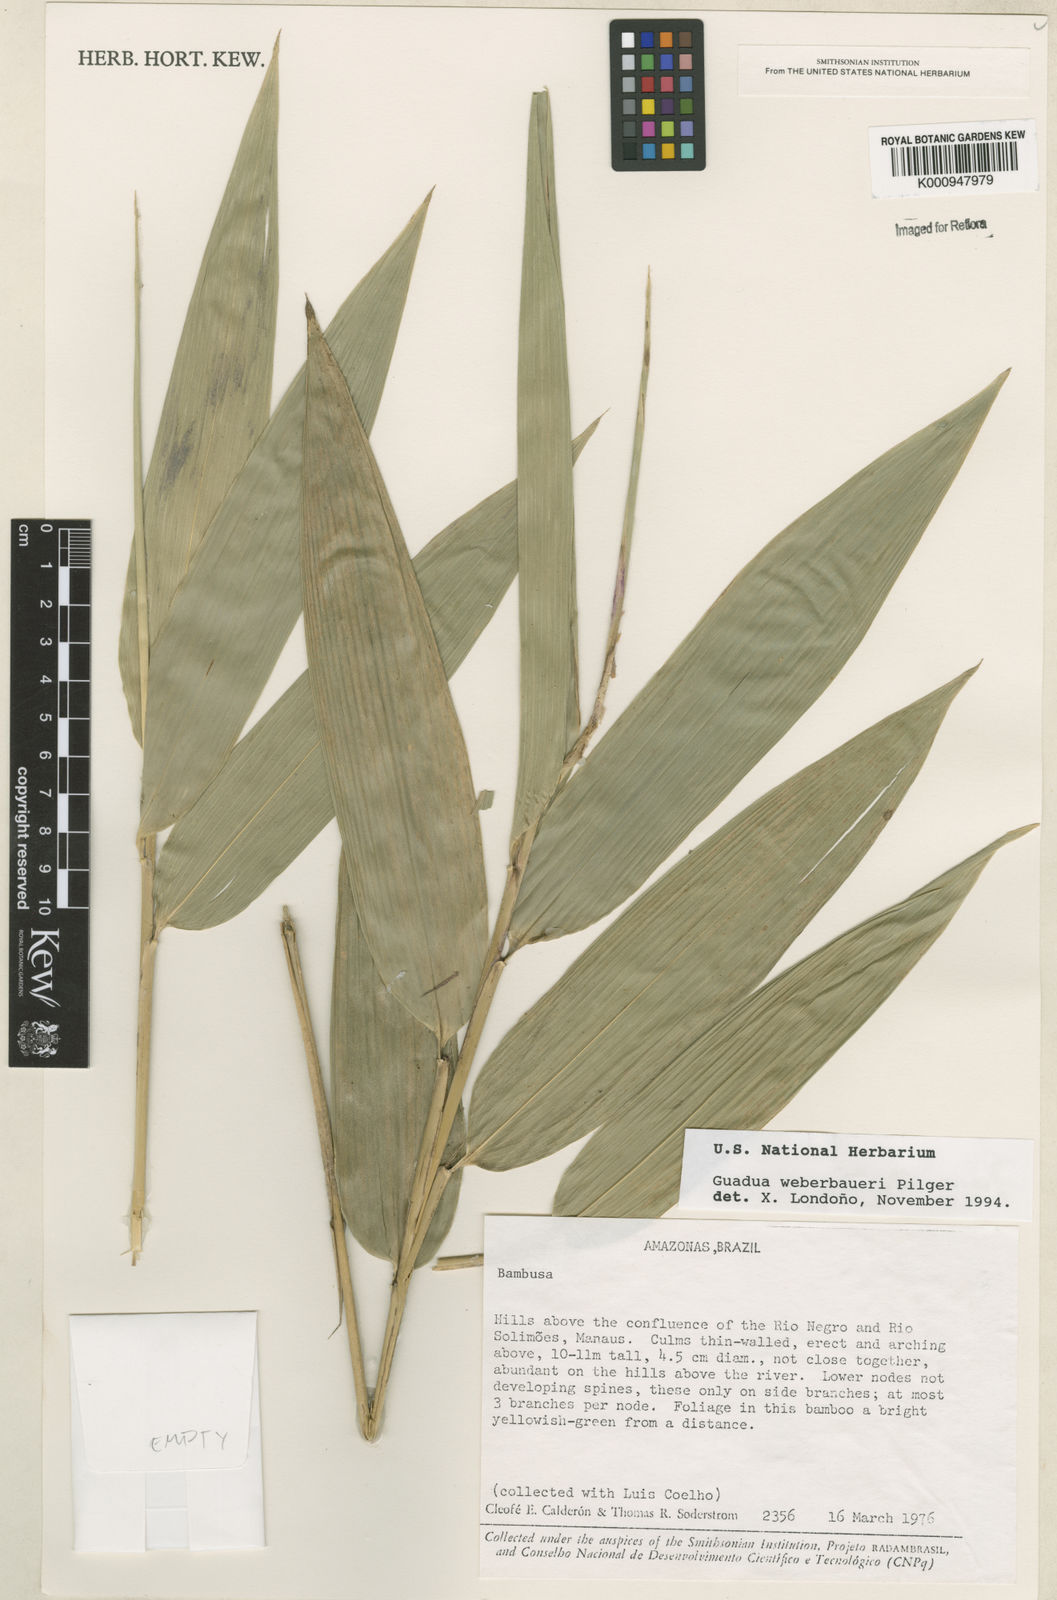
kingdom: Plantae
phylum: Tracheophyta
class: Liliopsida
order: Poales
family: Poaceae
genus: Guadua
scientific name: Guadua weberbaueri
